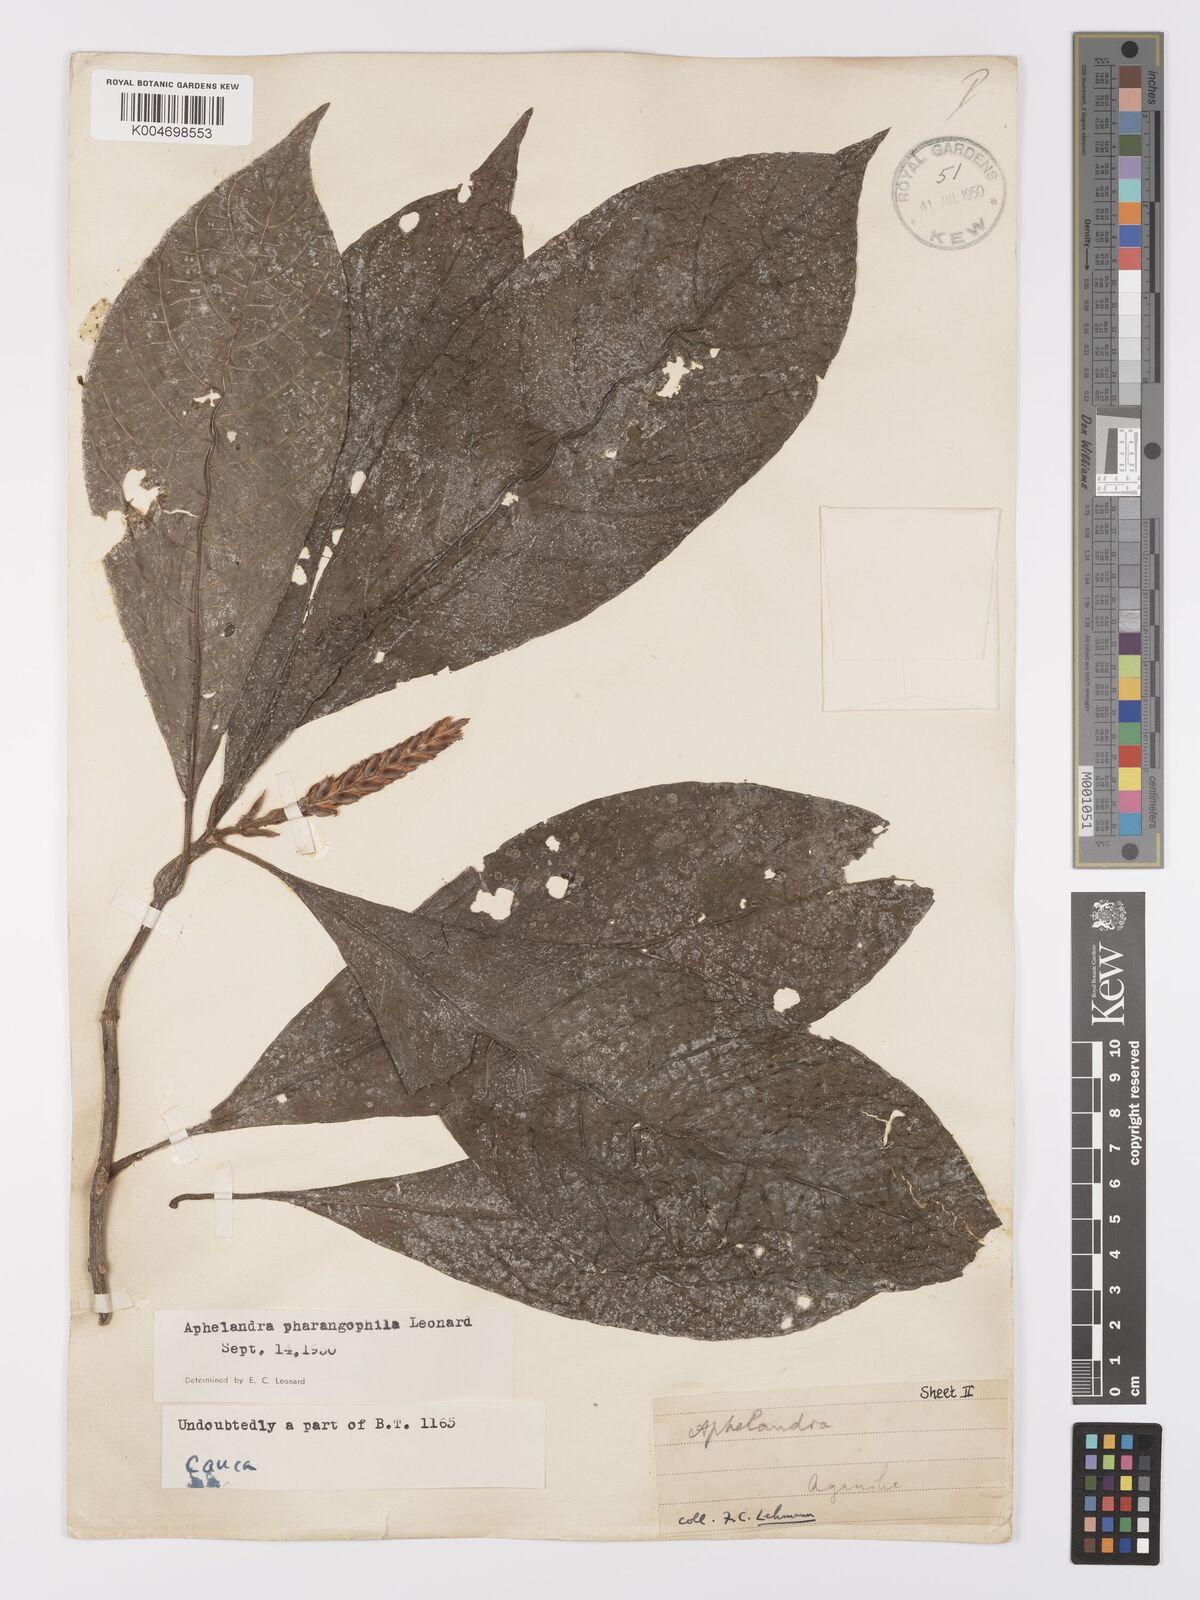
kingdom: Plantae
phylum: Tracheophyta
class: Magnoliopsida
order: Lamiales
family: Acanthaceae
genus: Aphelandra
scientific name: Aphelandra pharangophila
